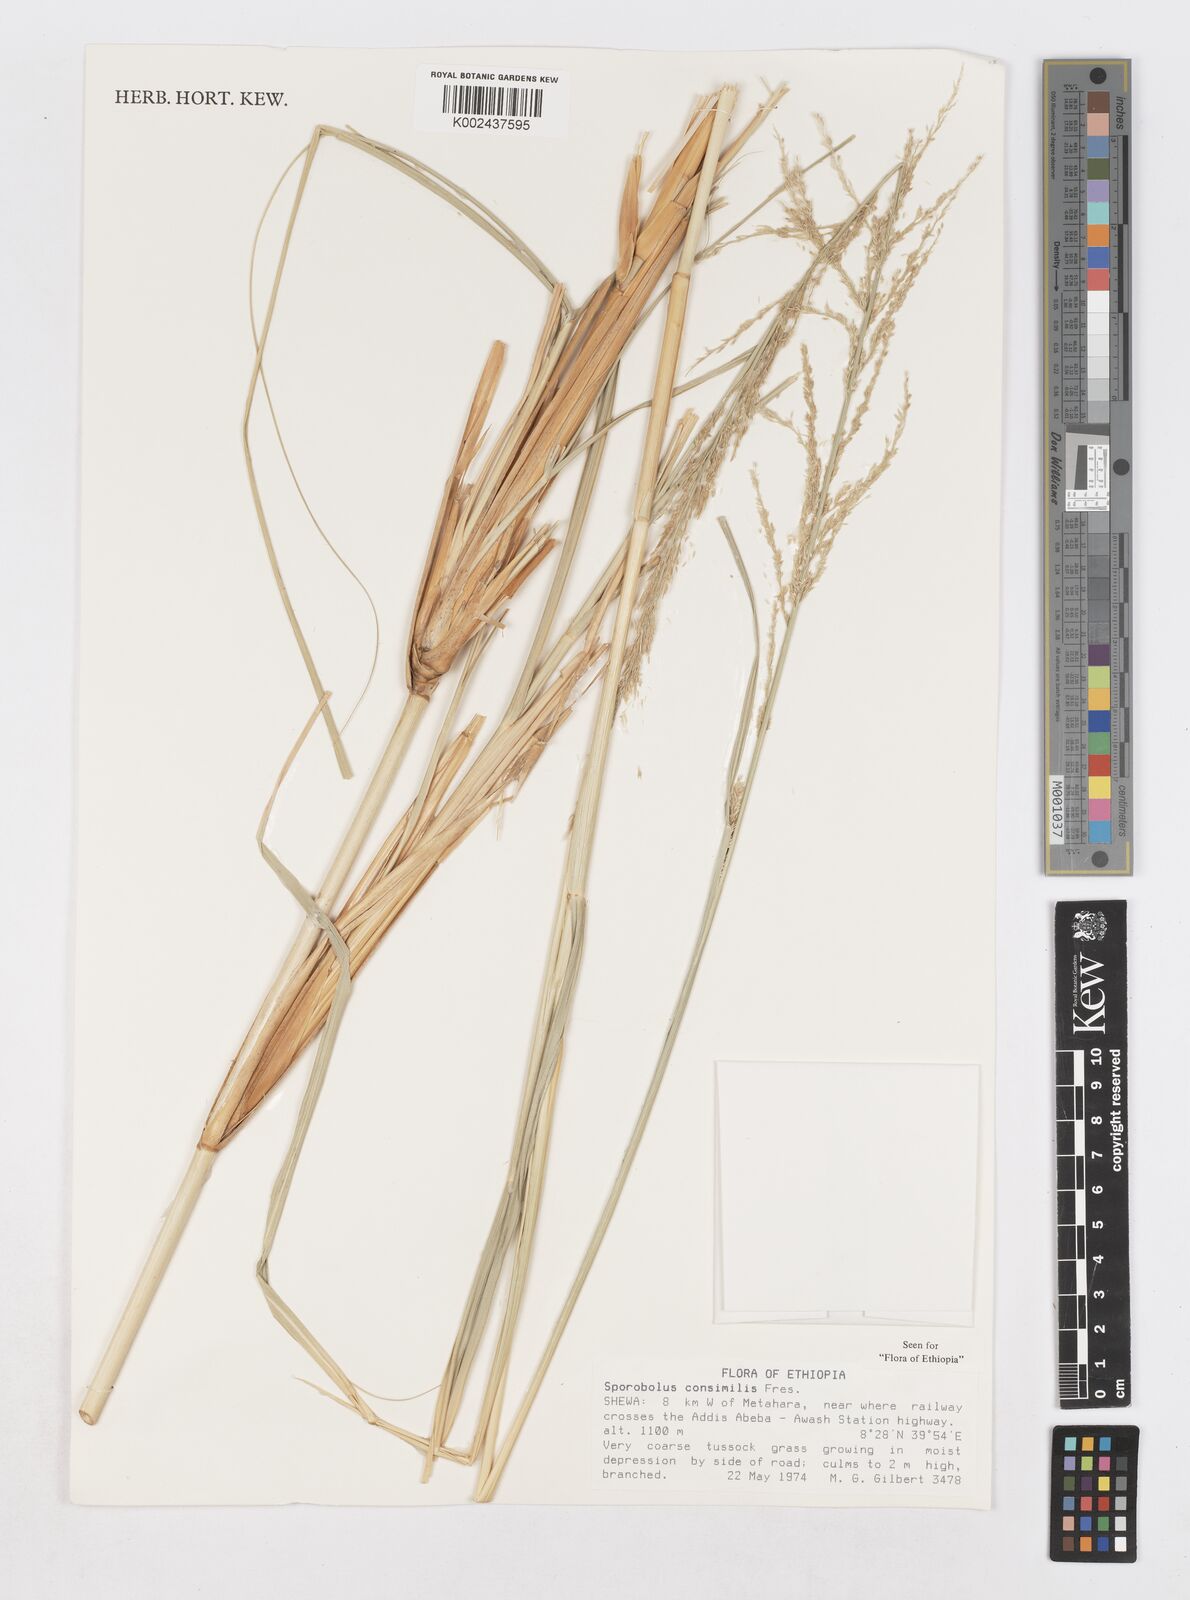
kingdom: Plantae
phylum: Tracheophyta
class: Liliopsida
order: Poales
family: Poaceae
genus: Sporobolus
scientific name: Sporobolus consimilis
